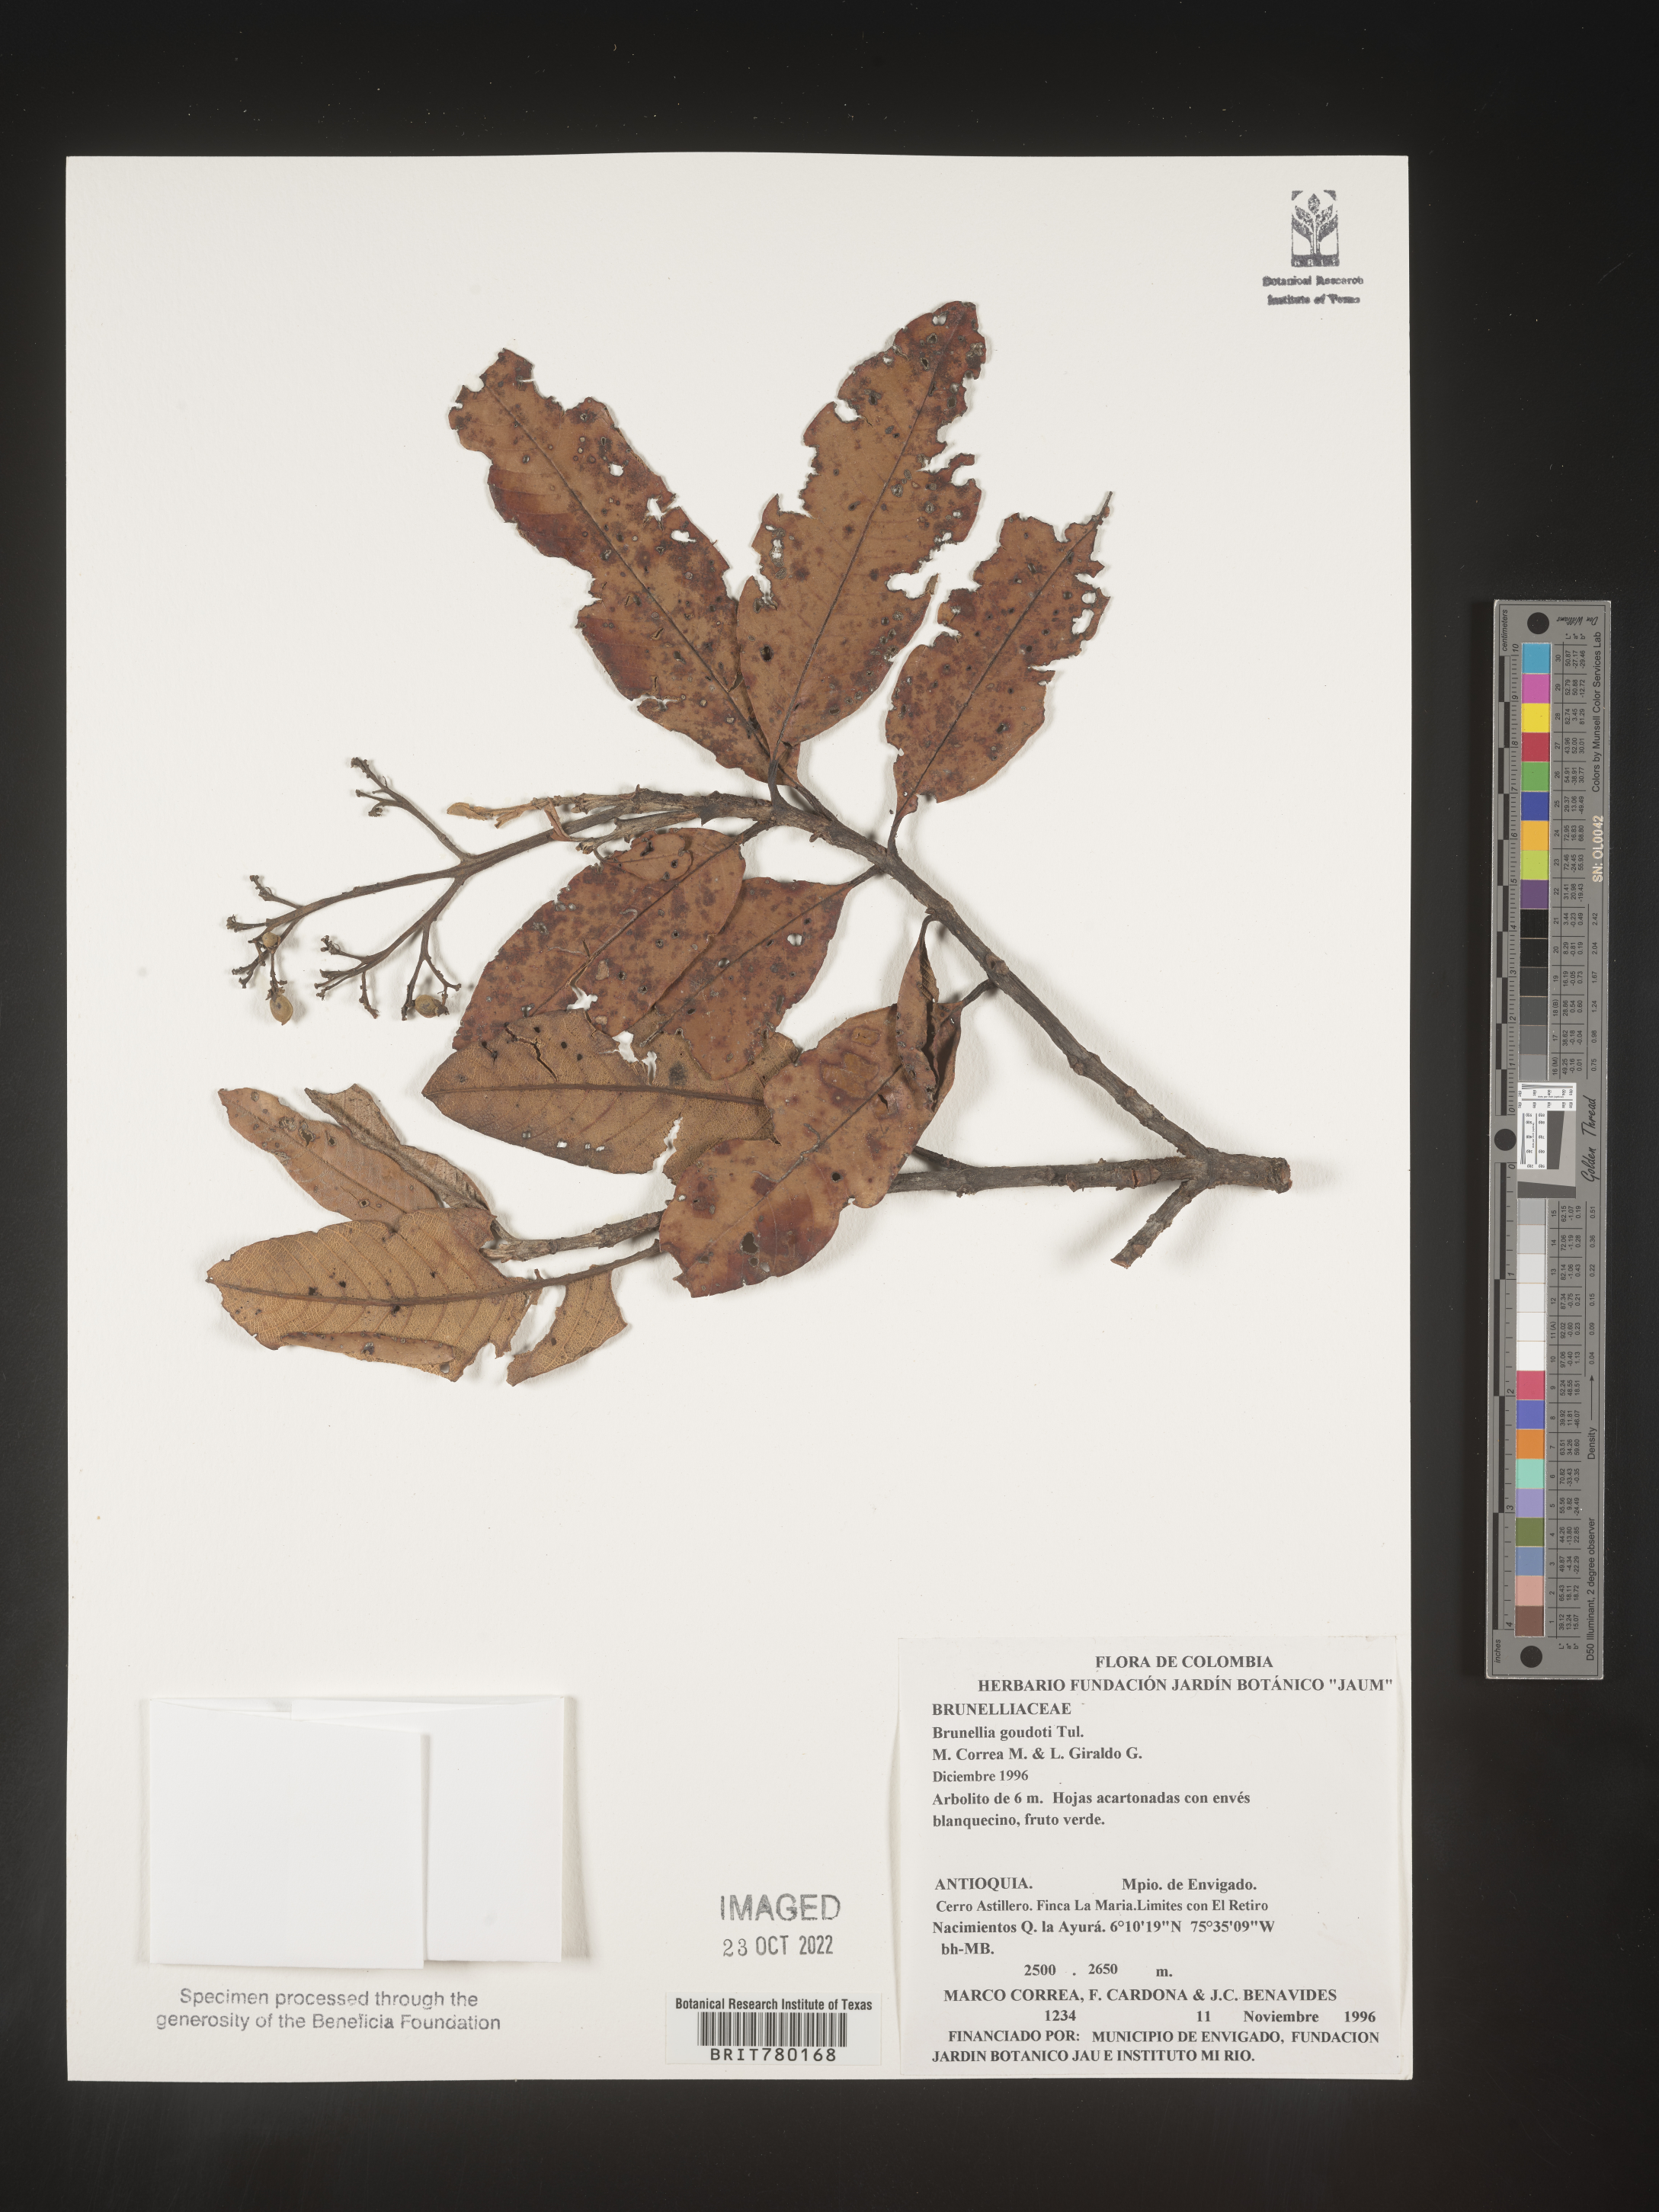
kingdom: Plantae
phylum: Tracheophyta
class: Magnoliopsida
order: Oxalidales
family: Brunelliaceae
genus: Brunellia
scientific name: Brunellia
